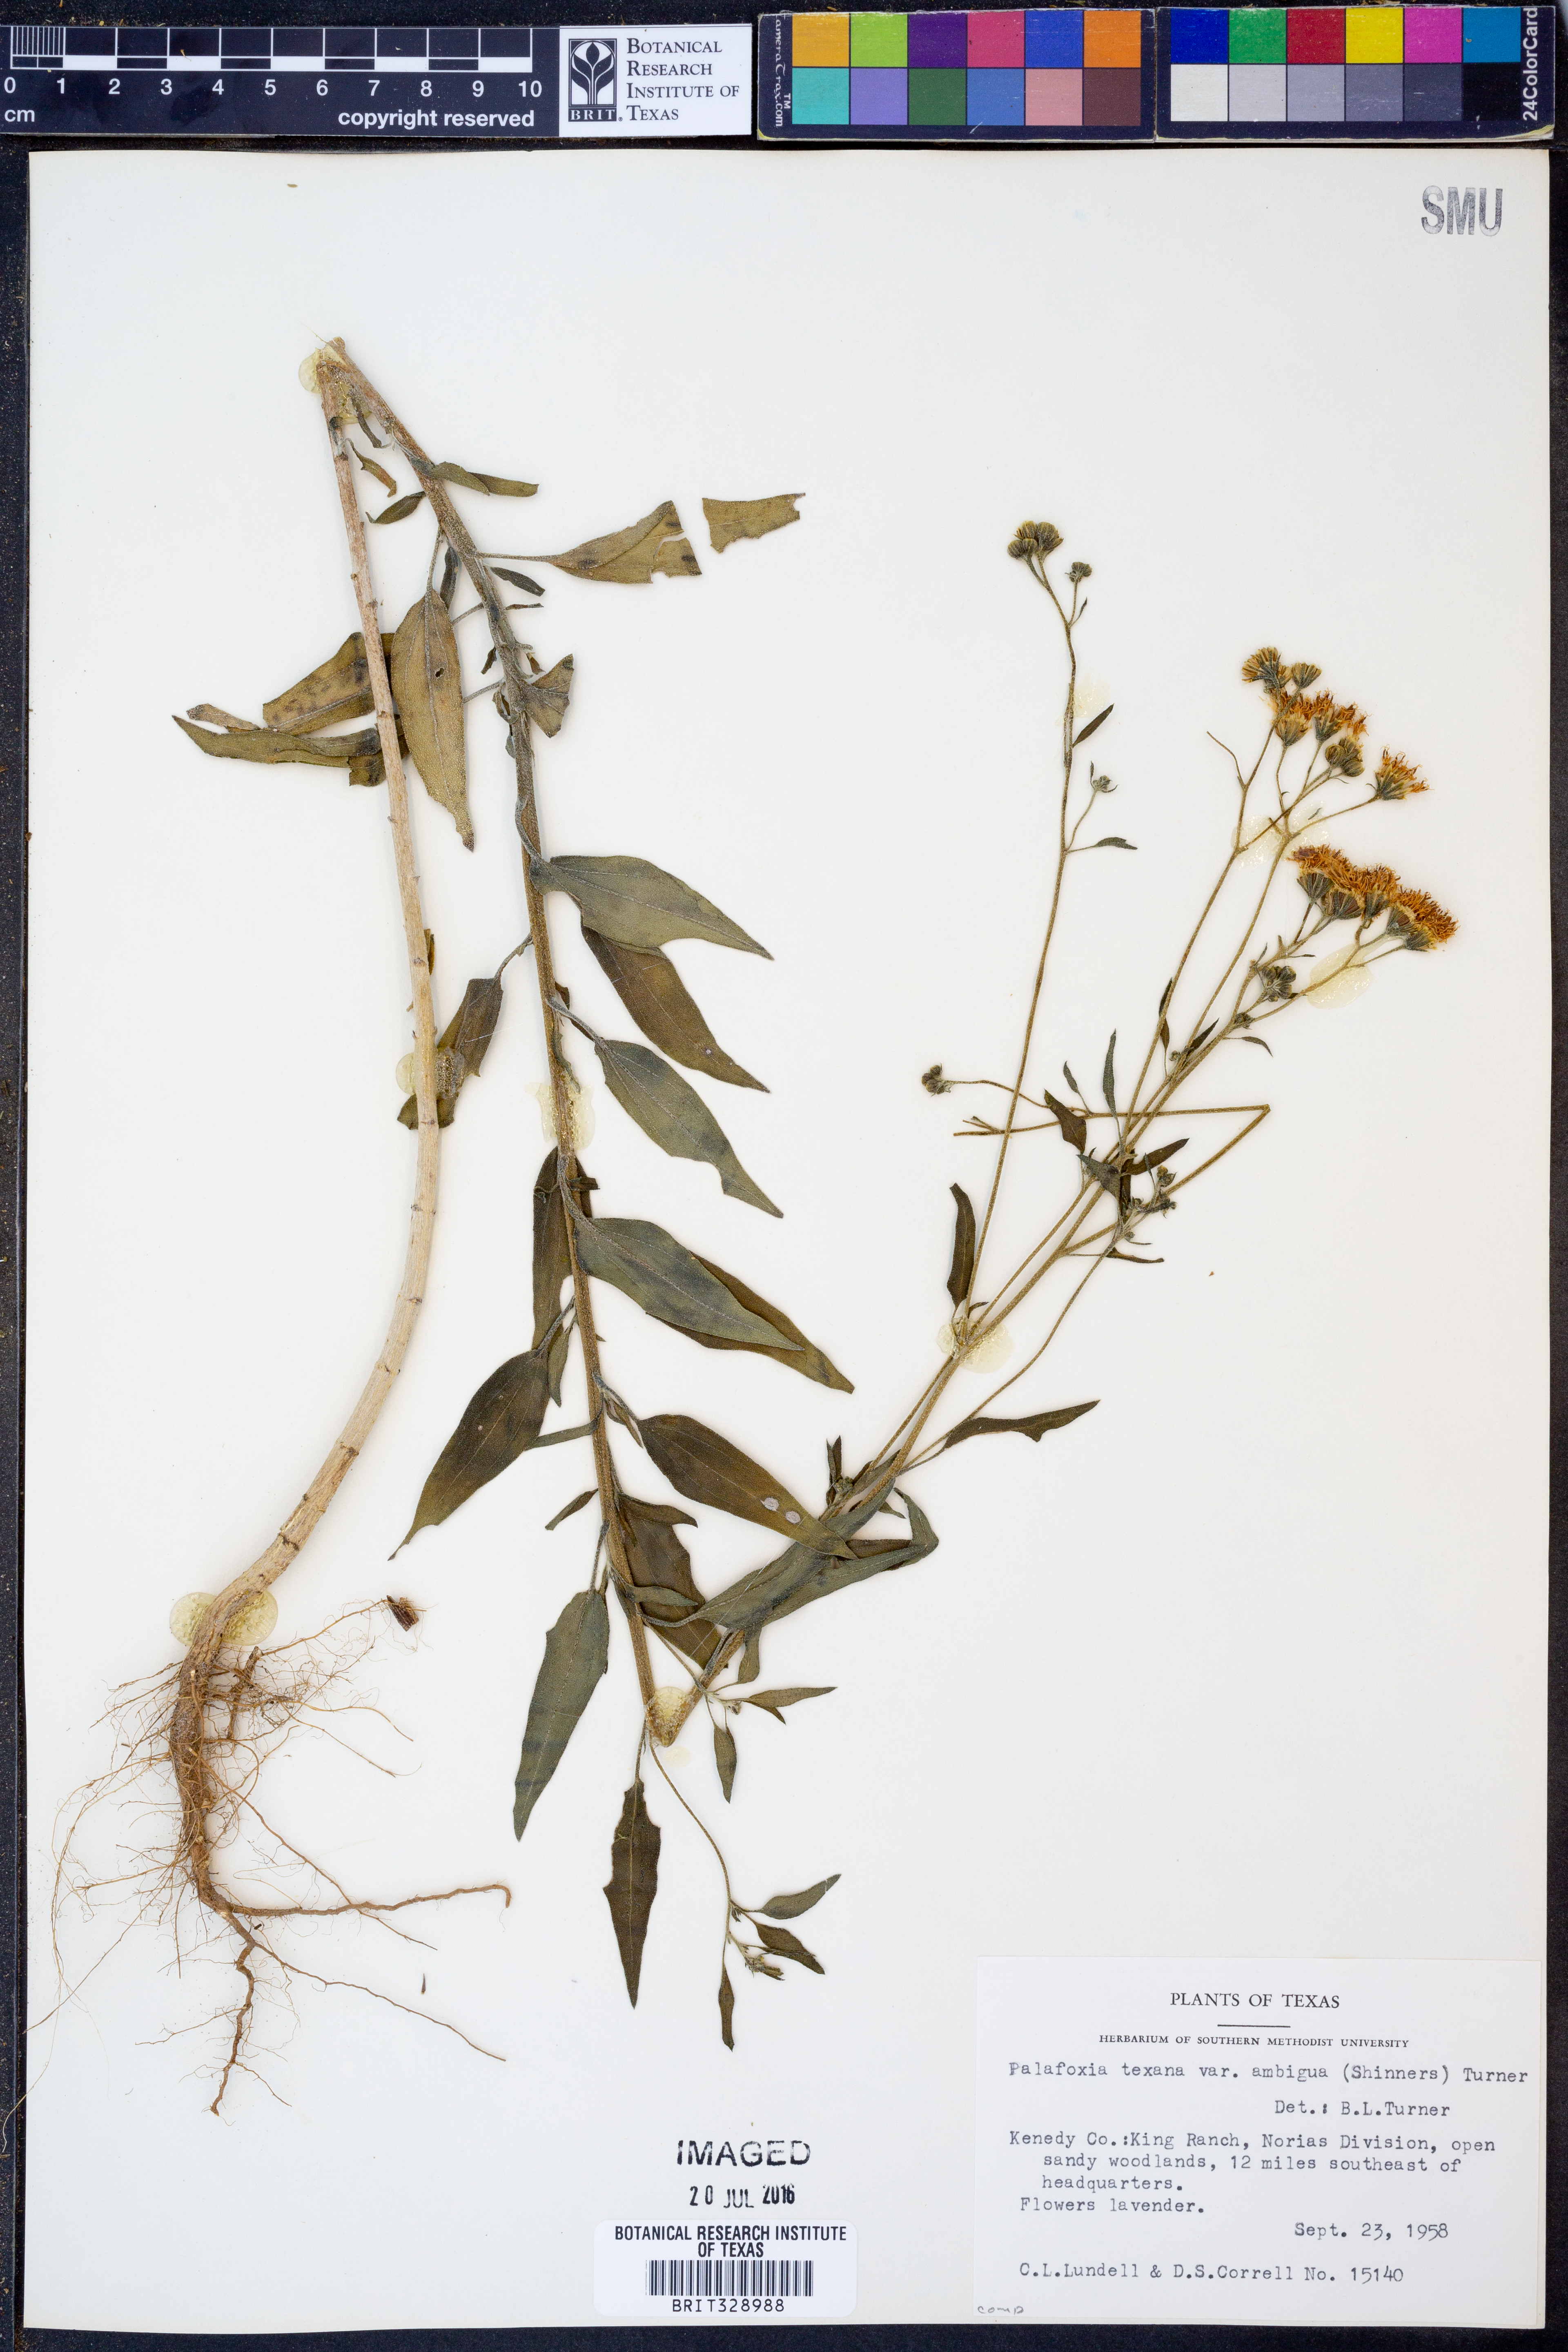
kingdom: Plantae
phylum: Tracheophyta
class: Magnoliopsida
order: Asterales
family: Asteraceae
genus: Palafoxia
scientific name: Palafoxia texana
